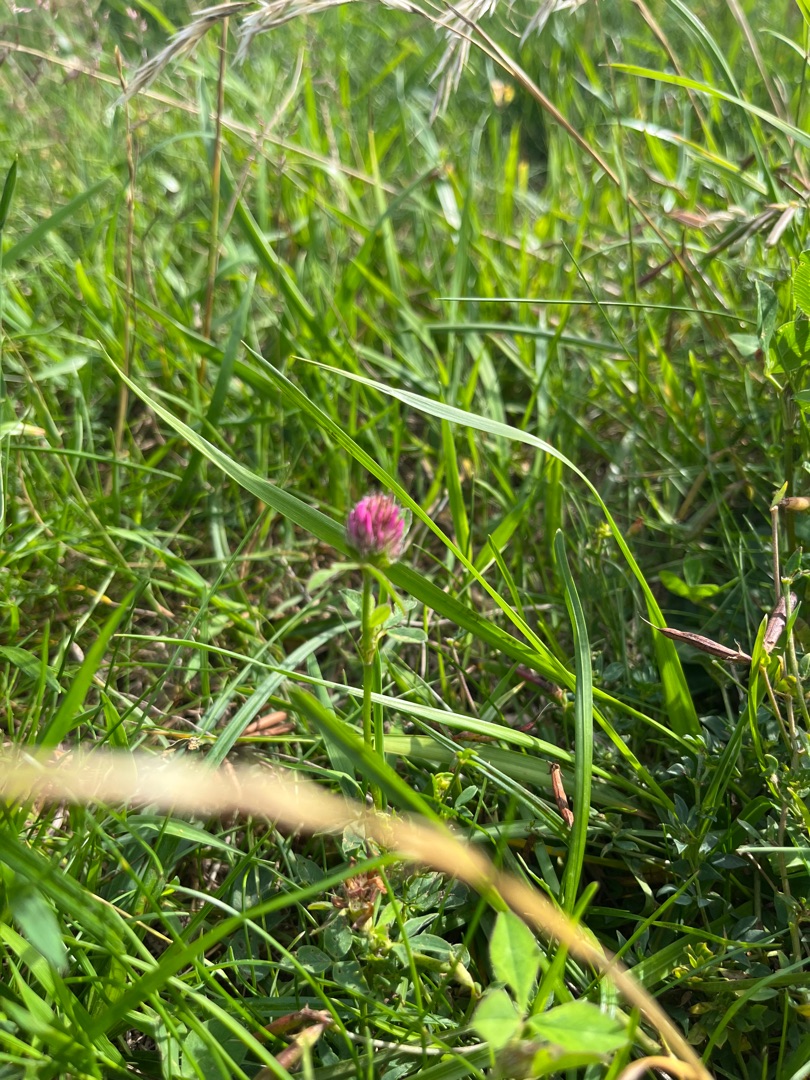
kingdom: Plantae
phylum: Tracheophyta
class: Magnoliopsida
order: Fabales
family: Fabaceae
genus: Trifolium
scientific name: Trifolium pratense
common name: Rød-kløver
